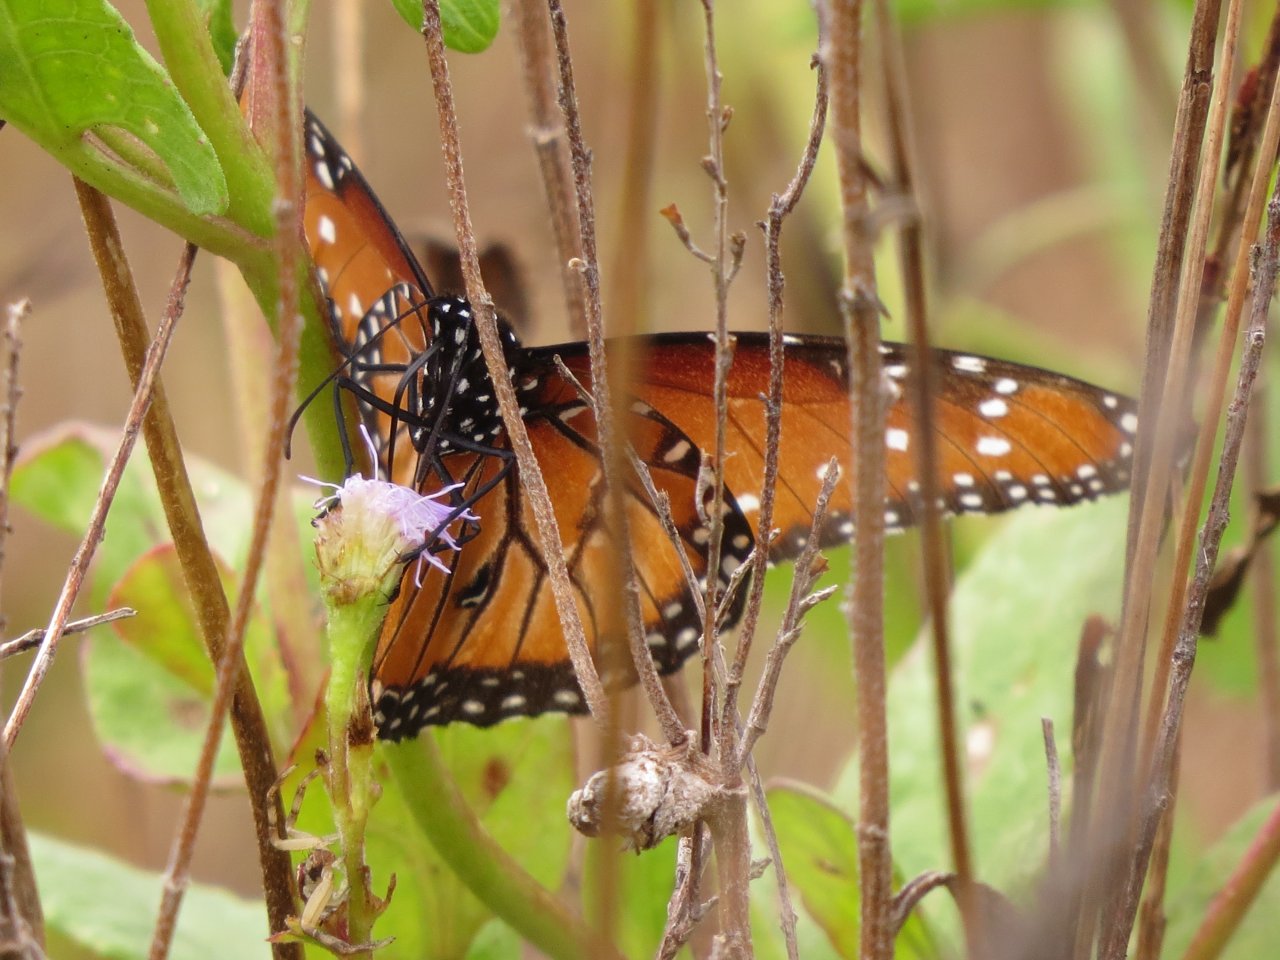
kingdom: Animalia
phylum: Arthropoda
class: Insecta
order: Lepidoptera
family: Nymphalidae
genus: Danaus
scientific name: Danaus gilippus
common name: Queen
